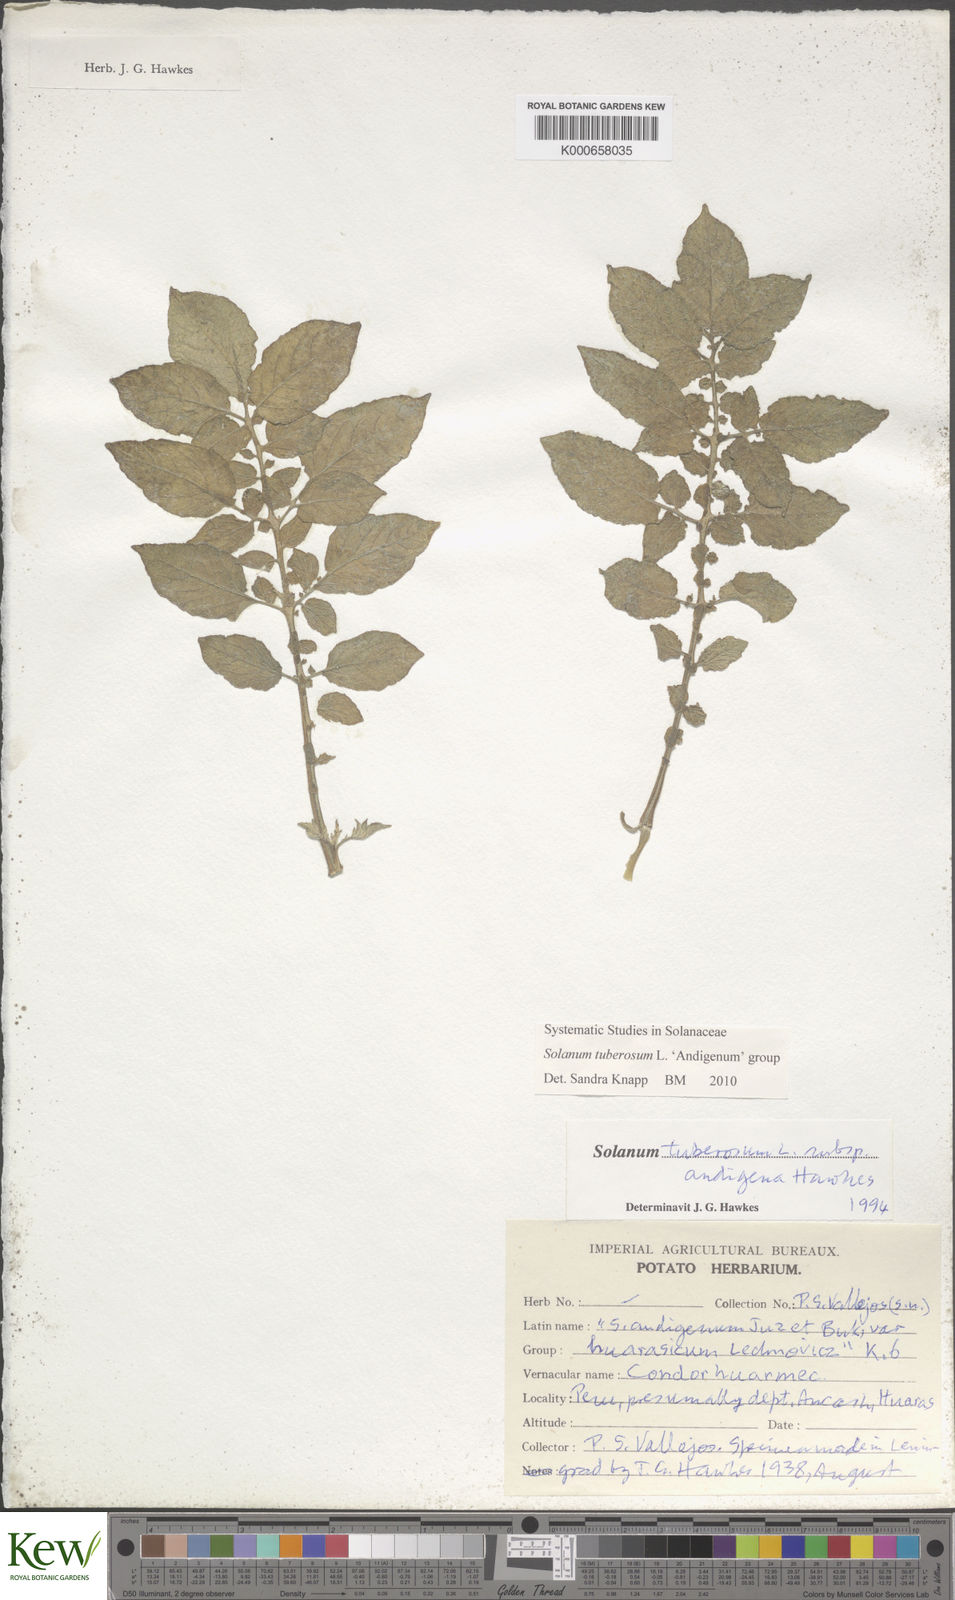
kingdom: Plantae
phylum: Tracheophyta
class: Magnoliopsida
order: Solanales
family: Solanaceae
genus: Solanum
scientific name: Solanum tuberosum
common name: Potato
